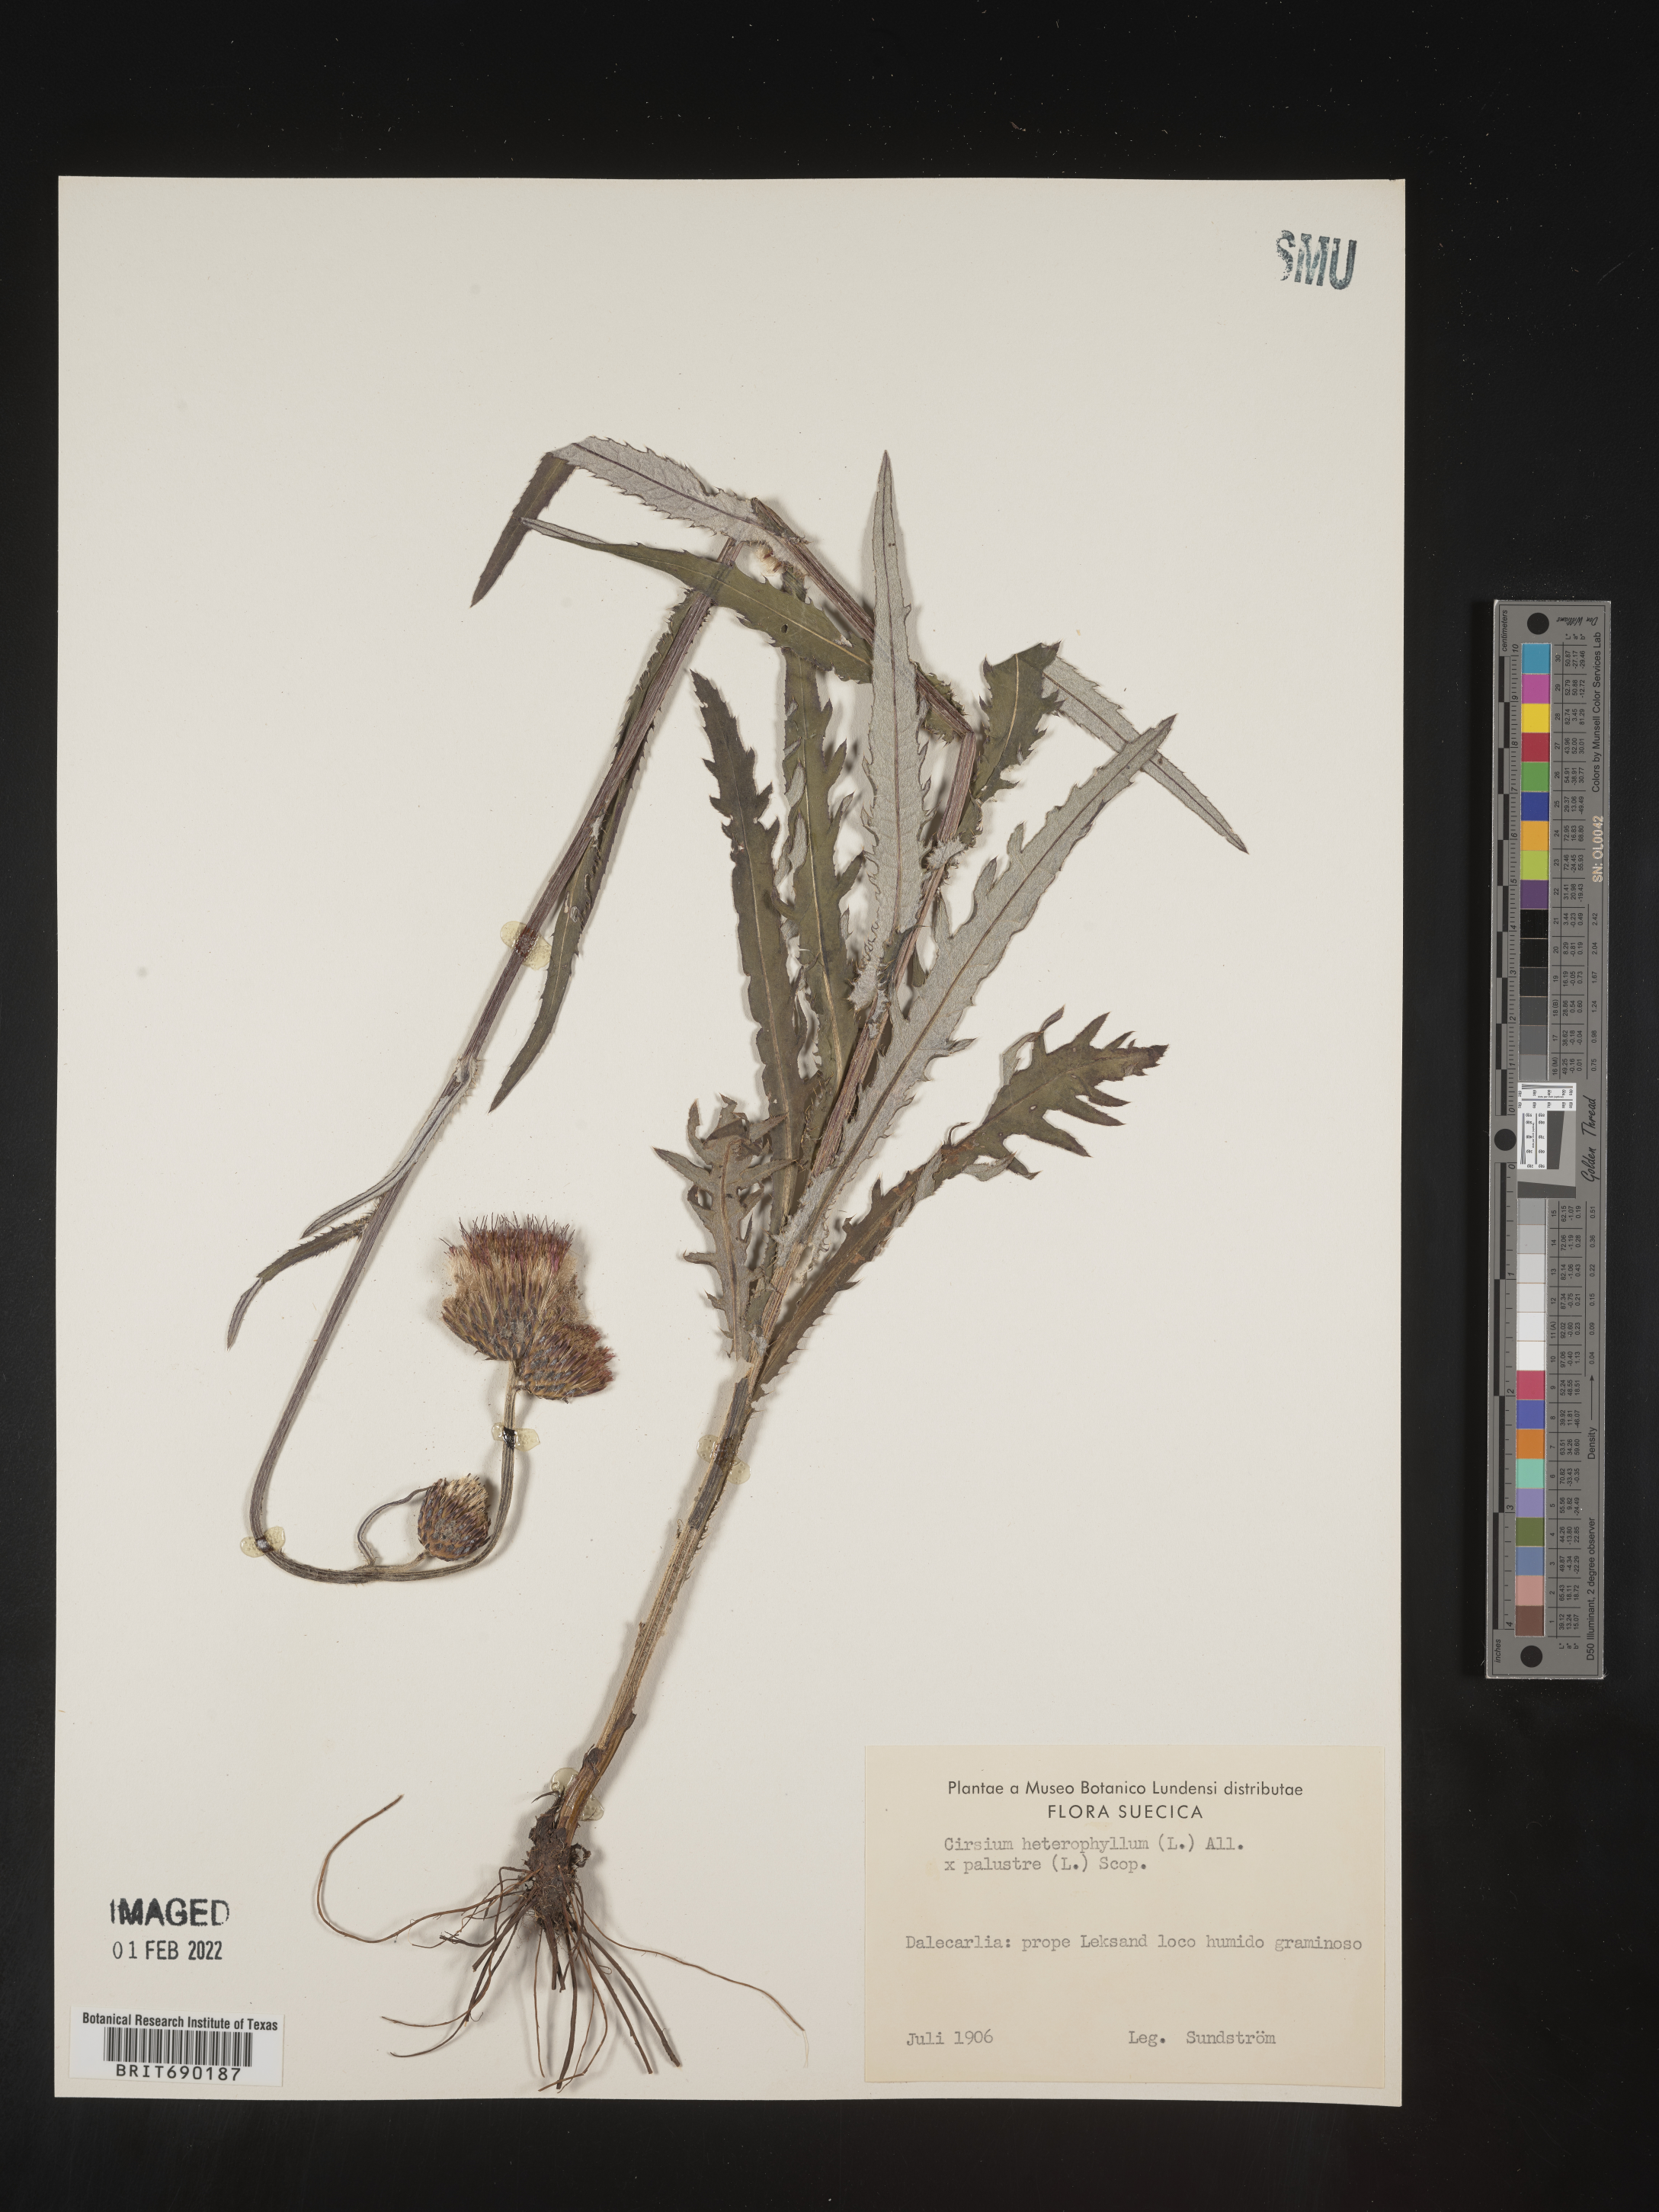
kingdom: Plantae
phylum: Tracheophyta
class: Magnoliopsida
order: Asterales
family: Asteraceae
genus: Cirsium
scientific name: Cirsium
